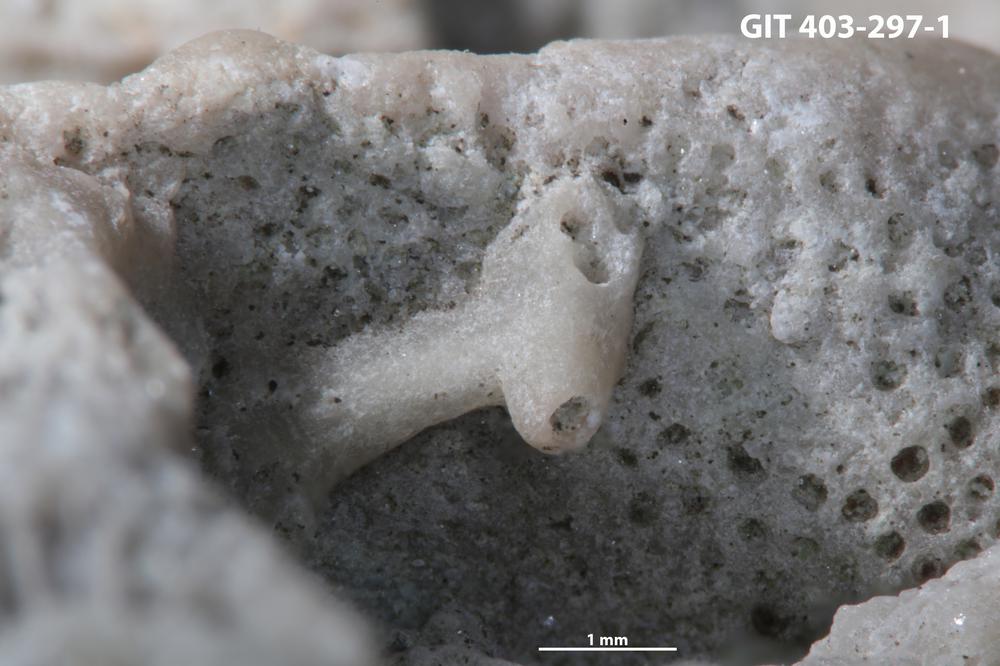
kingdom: Animalia
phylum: Cnidaria
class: Anthozoa
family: Auloporidae
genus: Aulopora
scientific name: Aulopora
